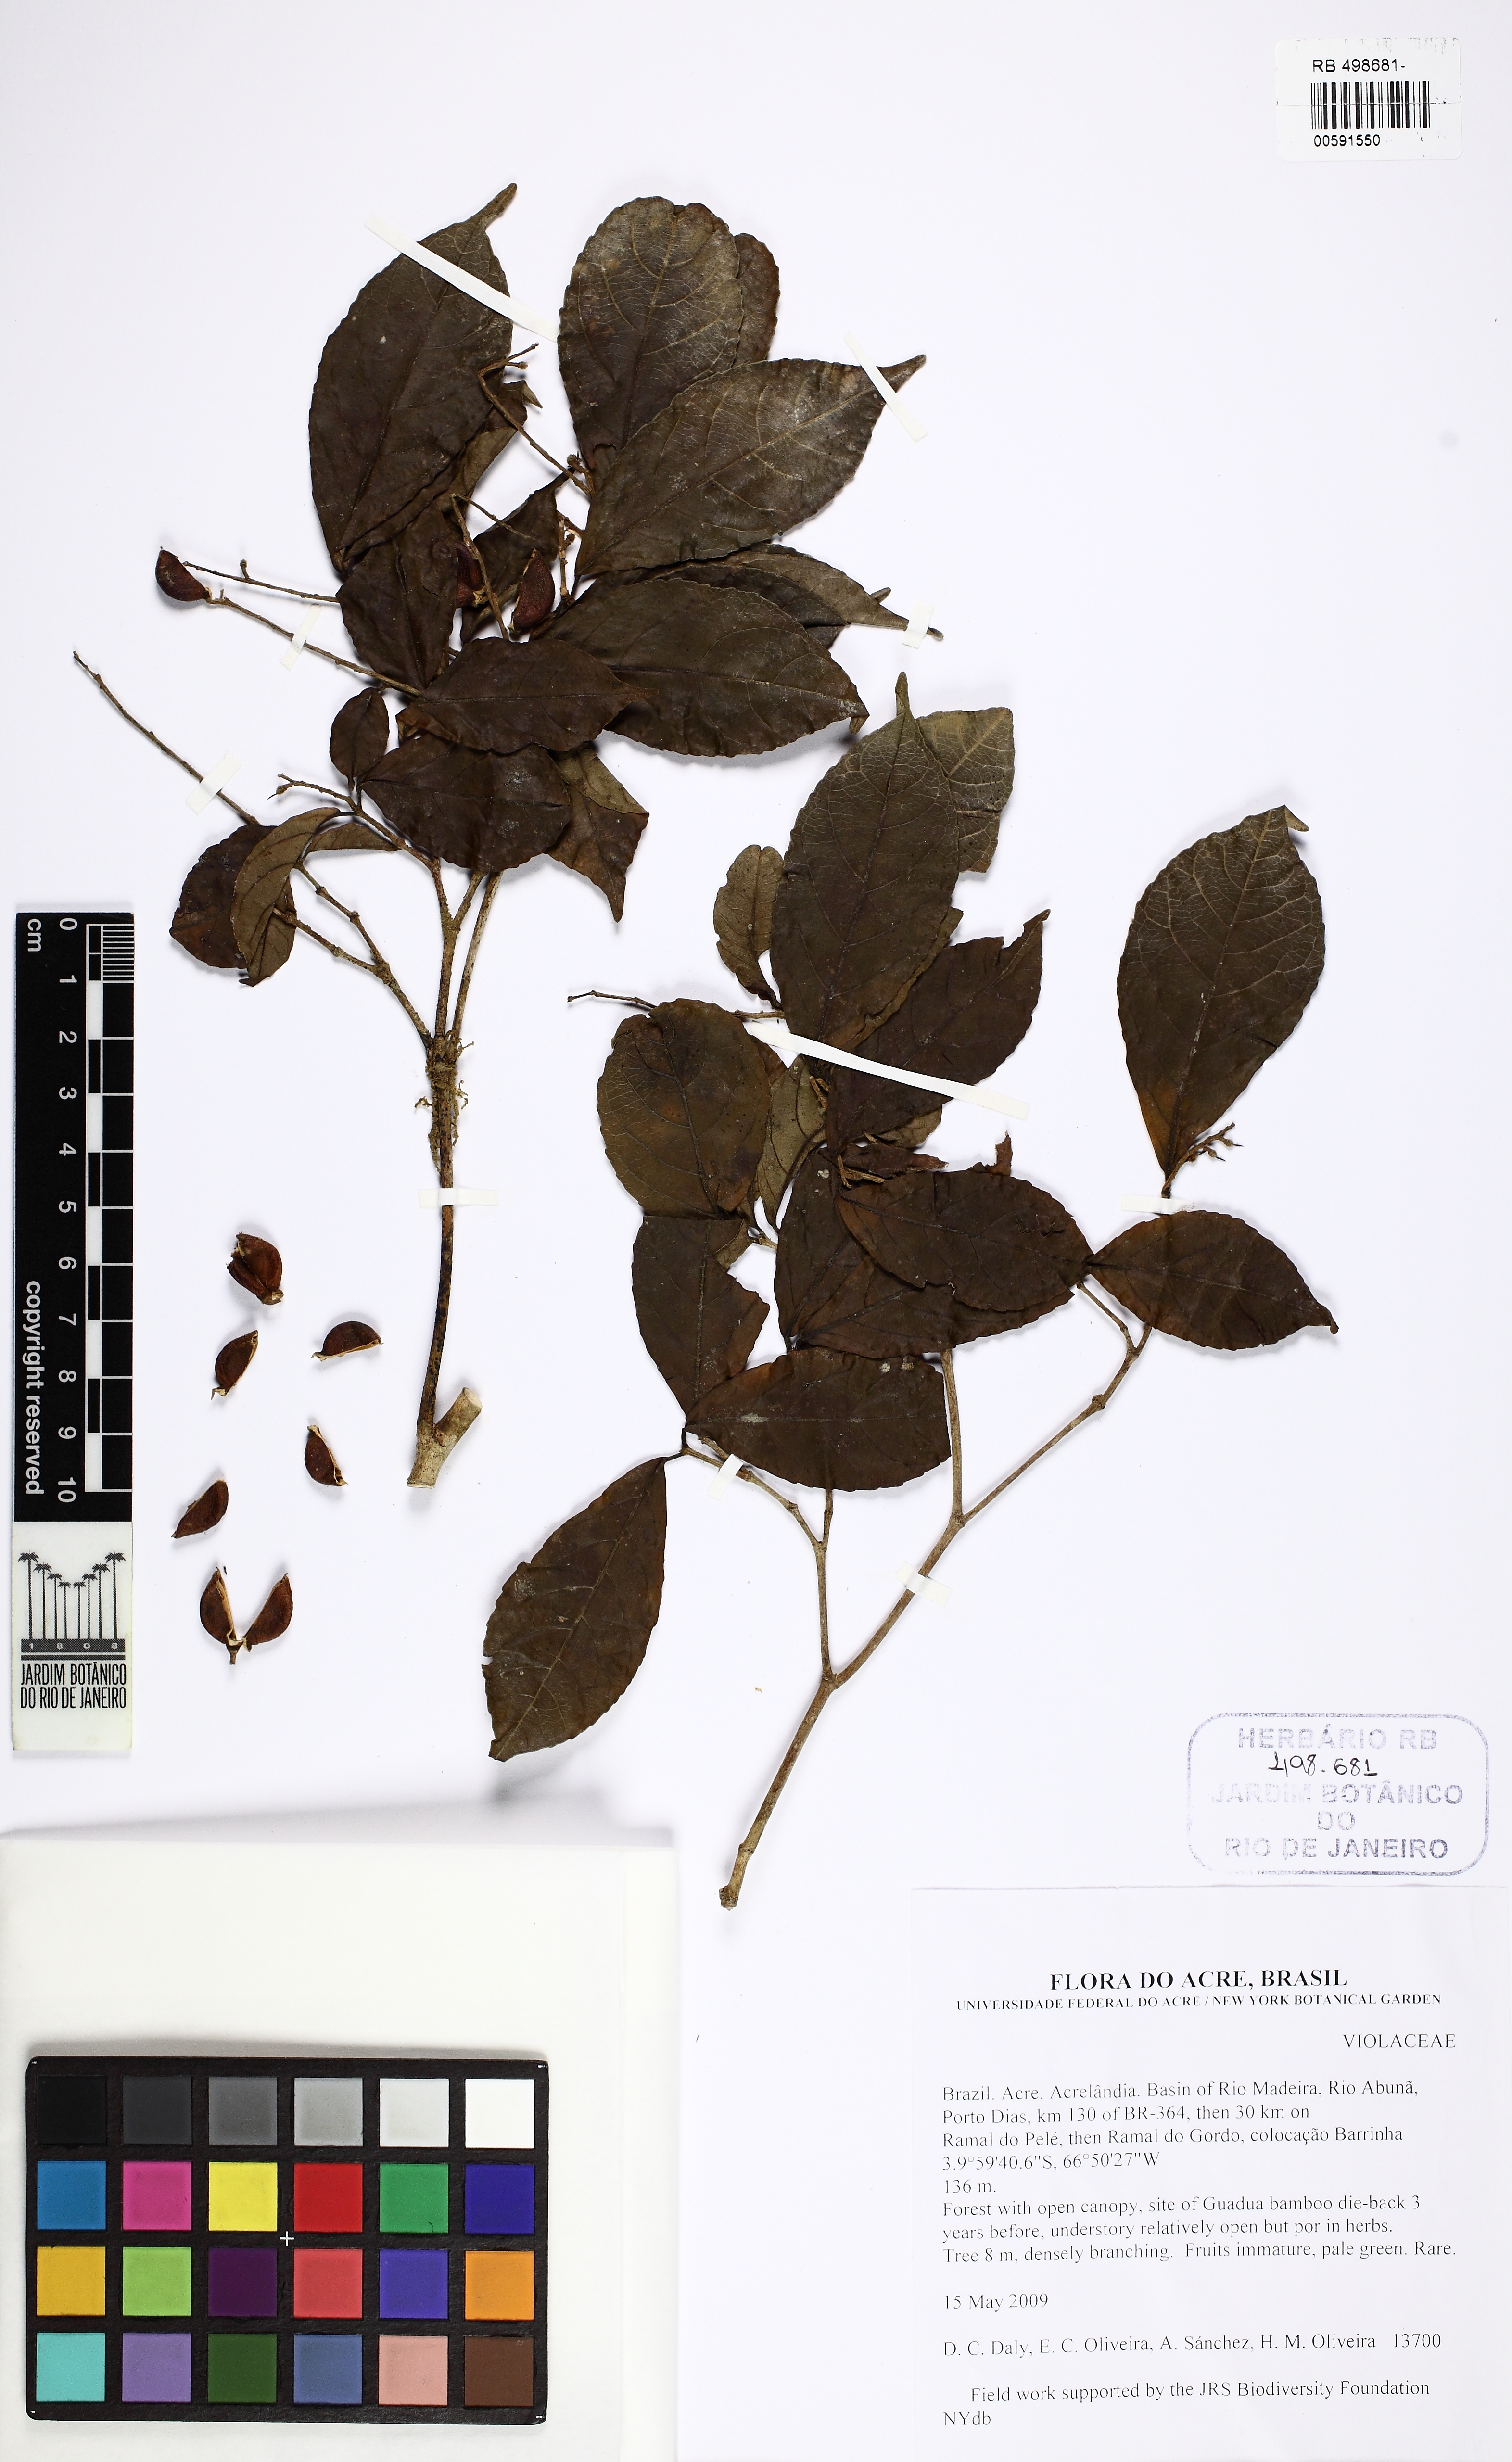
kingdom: Plantae
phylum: Tracheophyta
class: Magnoliopsida
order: Malpighiales
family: Violaceae
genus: Rinorea
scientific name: Rinorea
